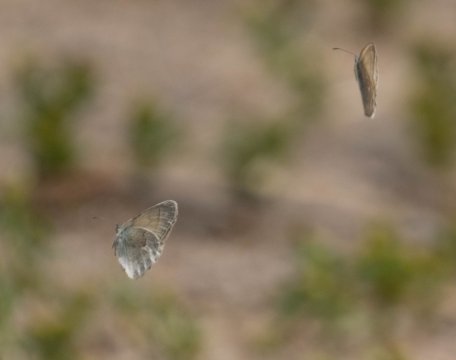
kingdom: Animalia
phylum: Arthropoda
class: Insecta
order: Lepidoptera
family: Nymphalidae
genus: Coenonympha
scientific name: Coenonympha tullia
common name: Large Heath
